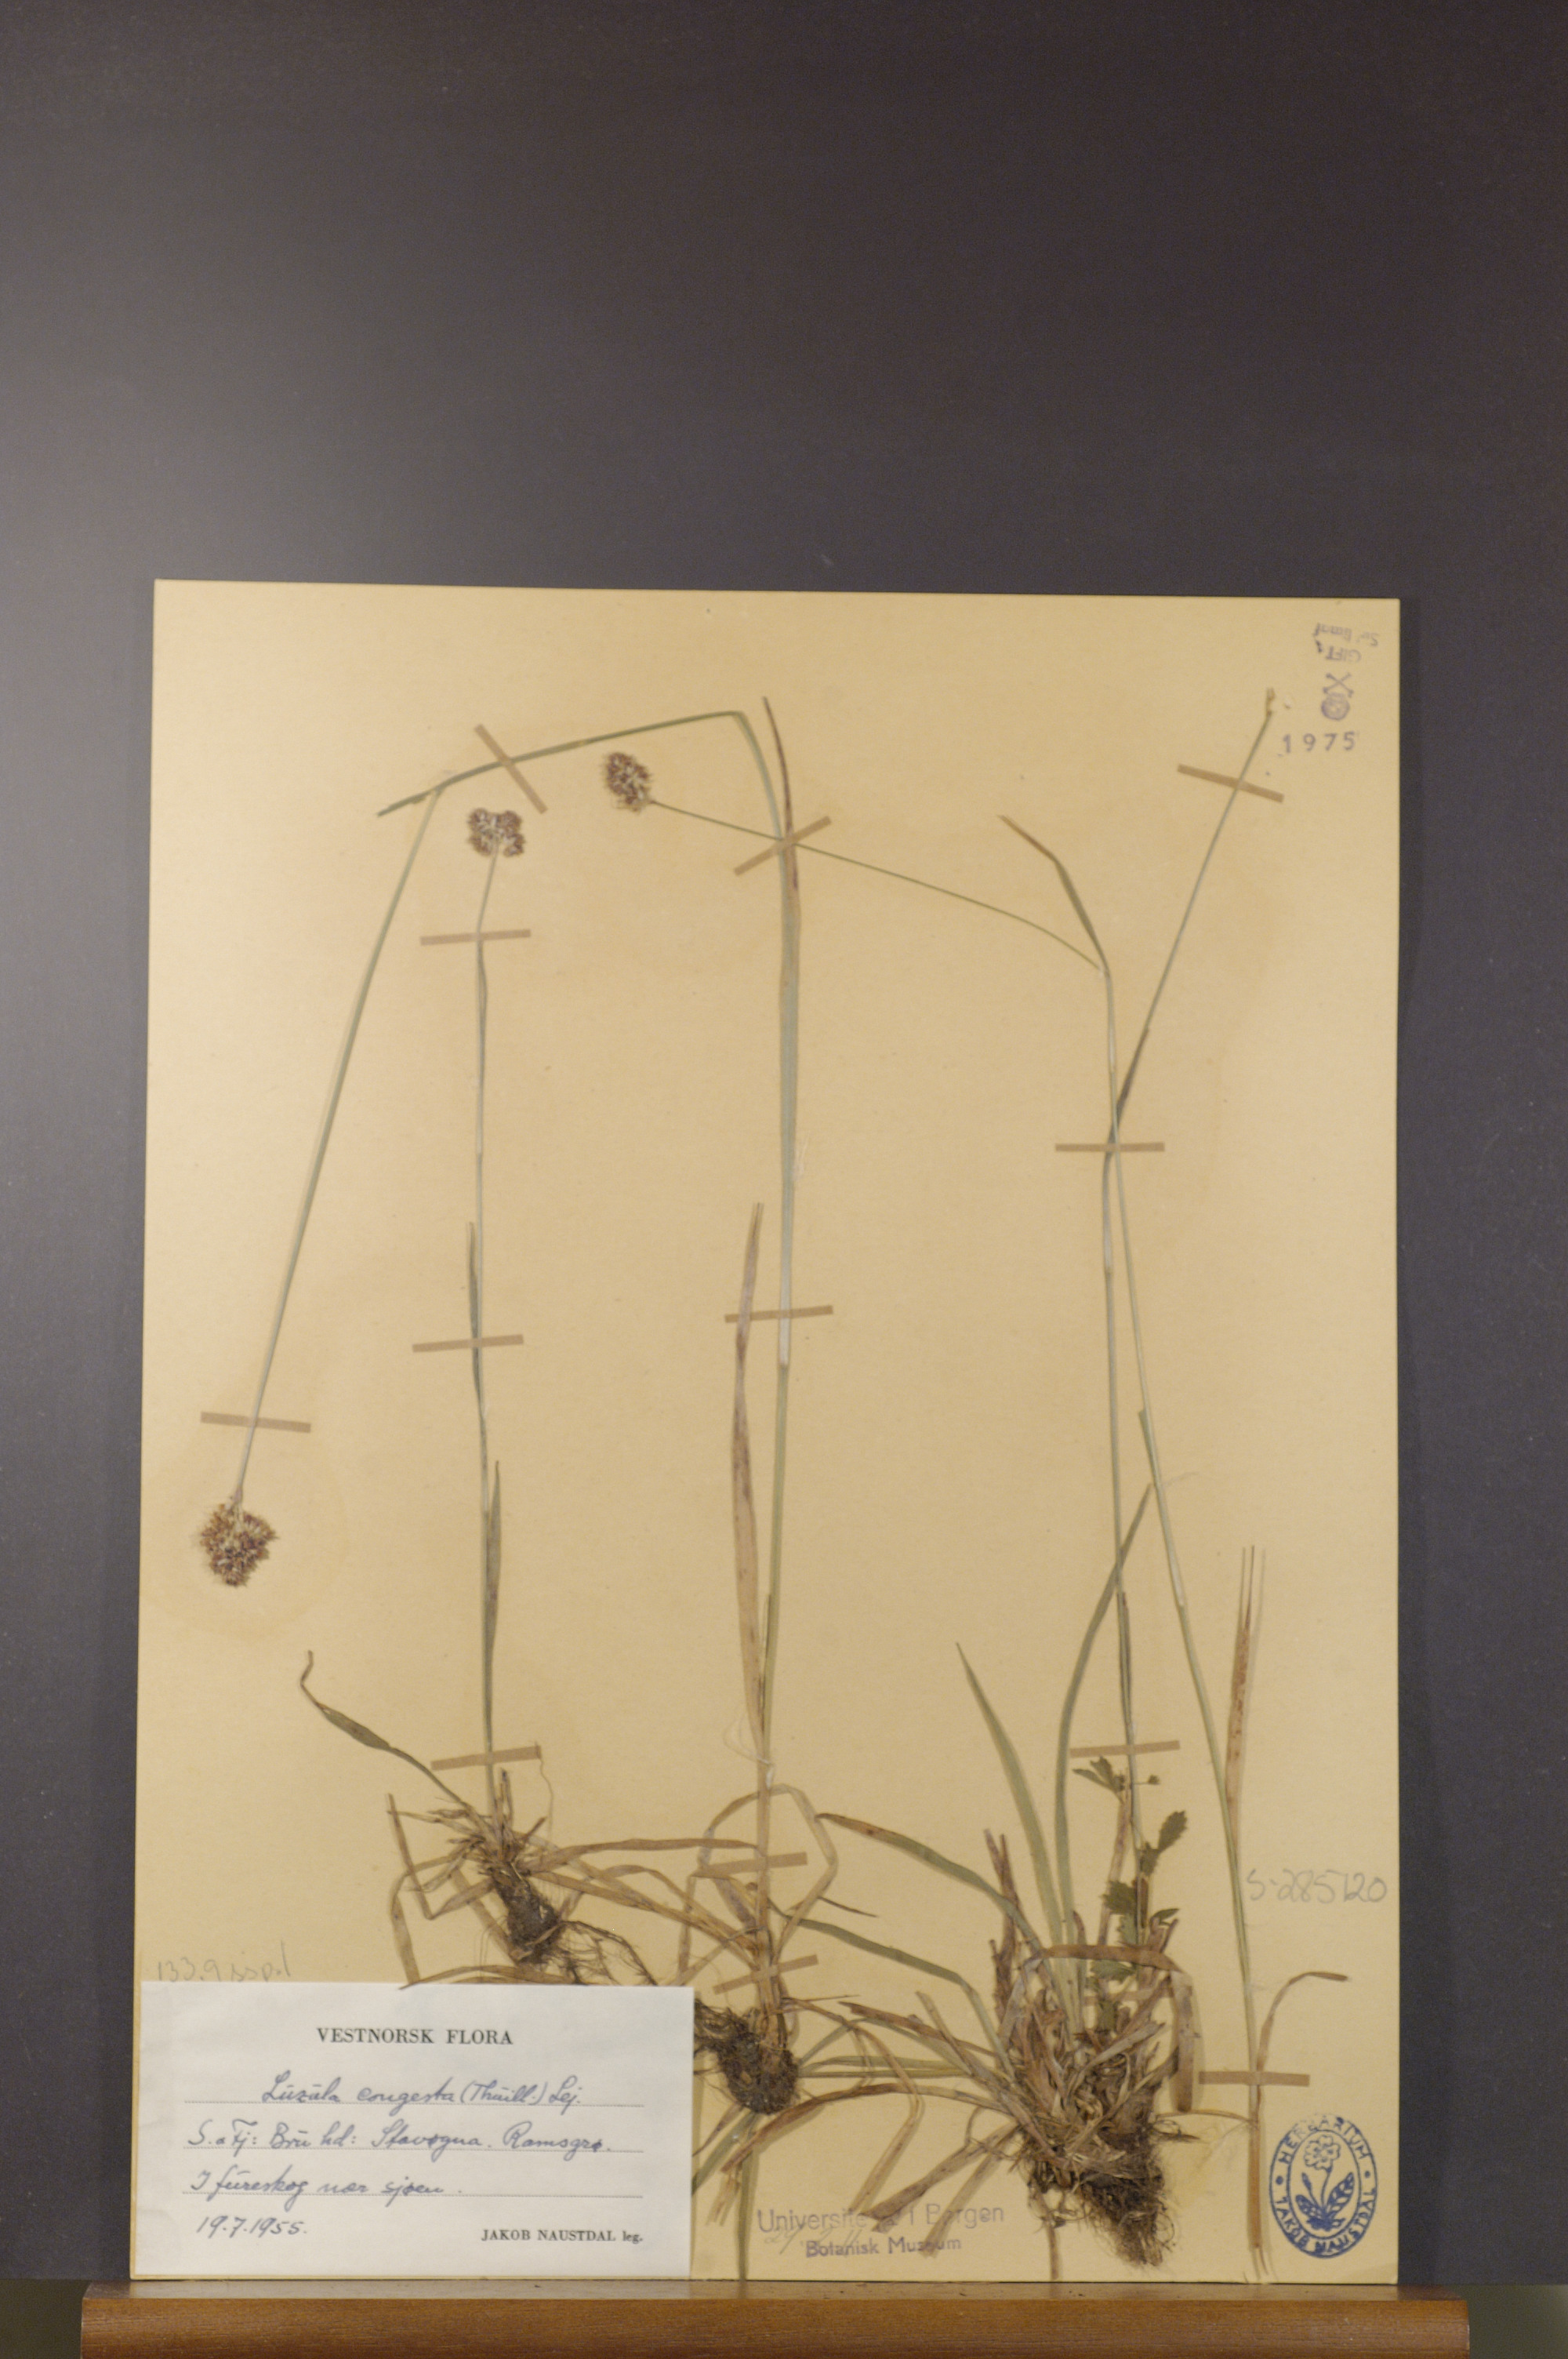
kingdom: Plantae
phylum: Tracheophyta
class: Liliopsida
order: Poales
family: Juncaceae
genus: Luzula
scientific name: Luzula congesta
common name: Heath woodrush
